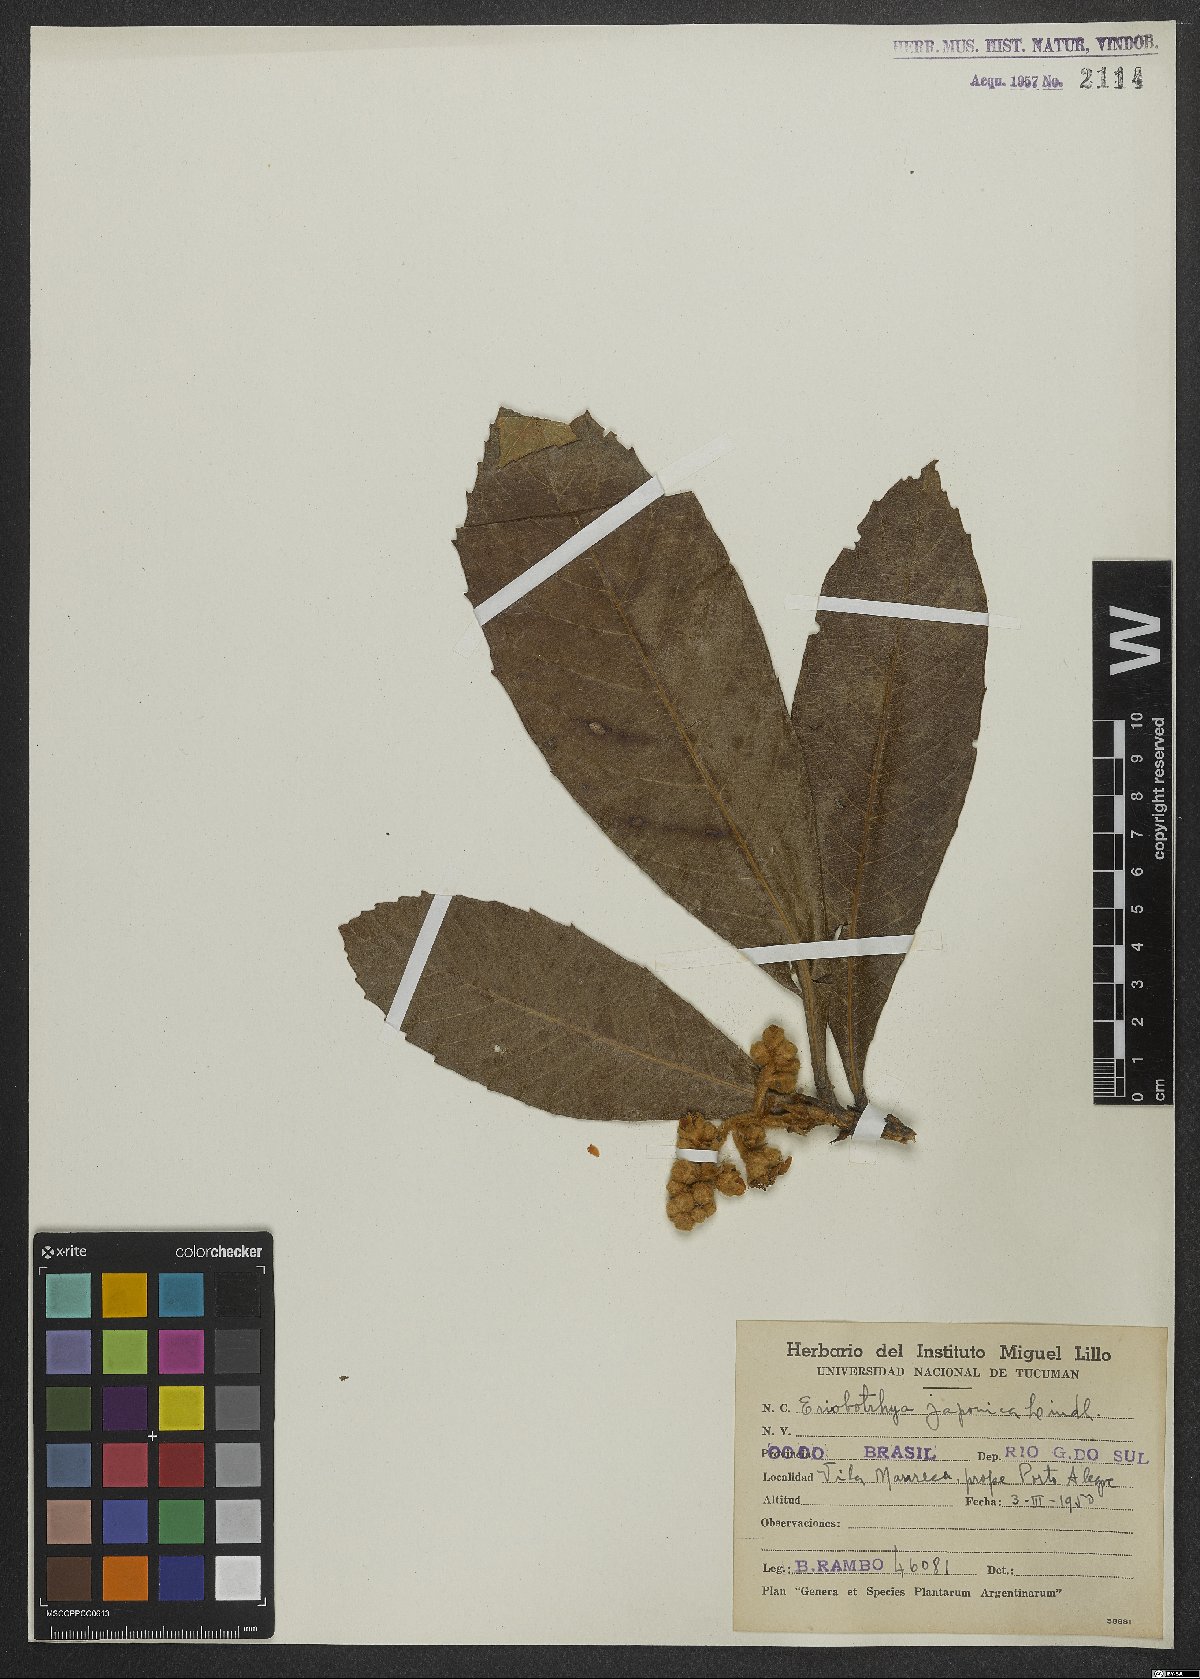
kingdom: Plantae
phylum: Tracheophyta
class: Magnoliopsida
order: Rosales
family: Rosaceae
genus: Rhaphiolepis
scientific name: Rhaphiolepis bibas
